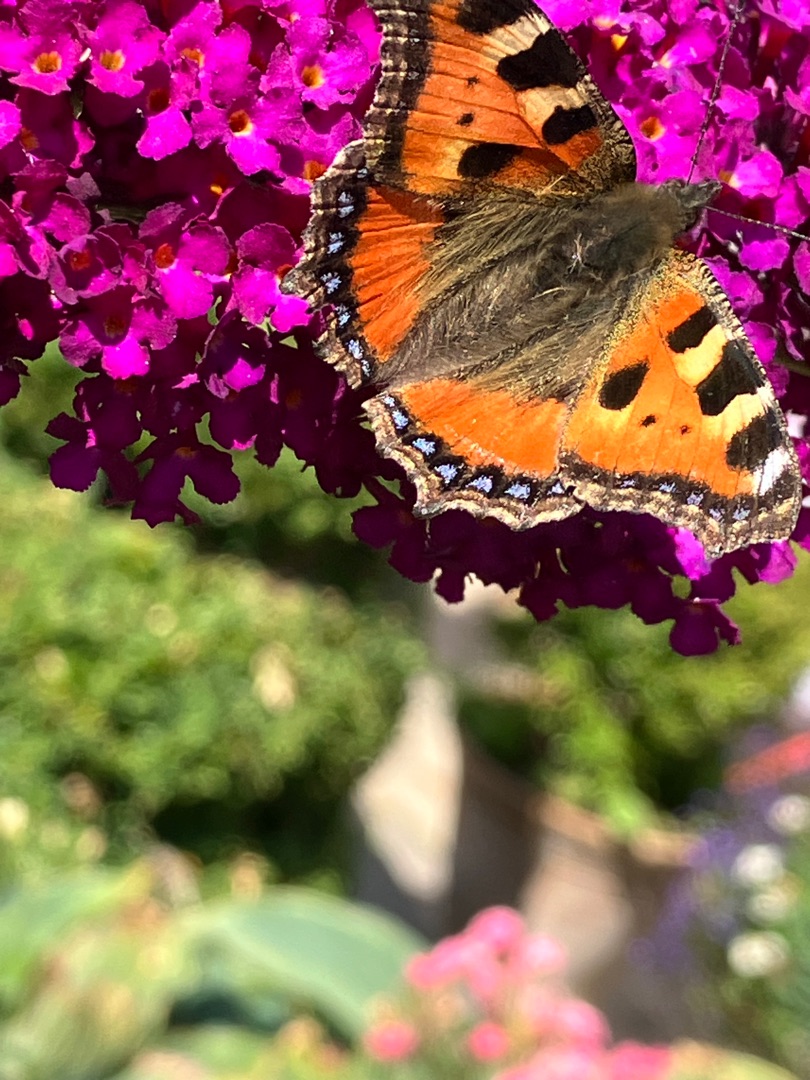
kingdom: Animalia
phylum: Arthropoda
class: Insecta
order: Lepidoptera
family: Nymphalidae
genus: Aglais
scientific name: Aglais urticae
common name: Nældens takvinge
